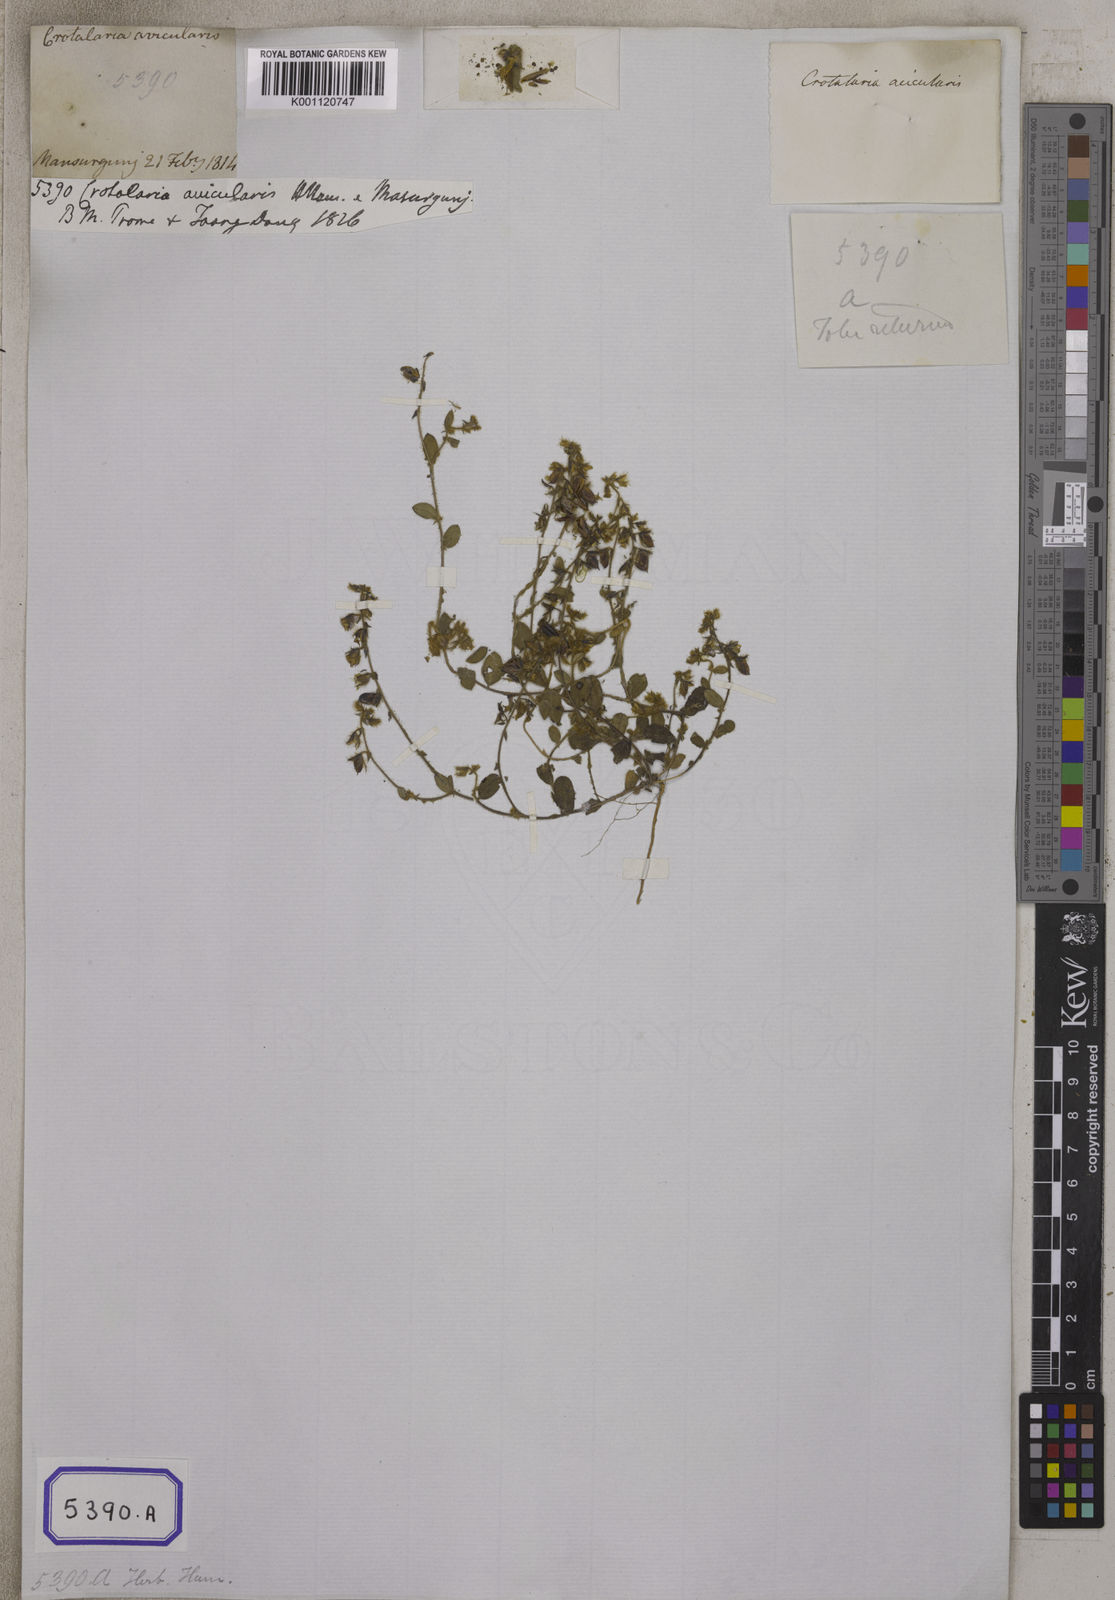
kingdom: Plantae
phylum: Tracheophyta
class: Magnoliopsida
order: Fabales
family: Fabaceae
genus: Crotalaria
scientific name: Crotalaria acicularis
